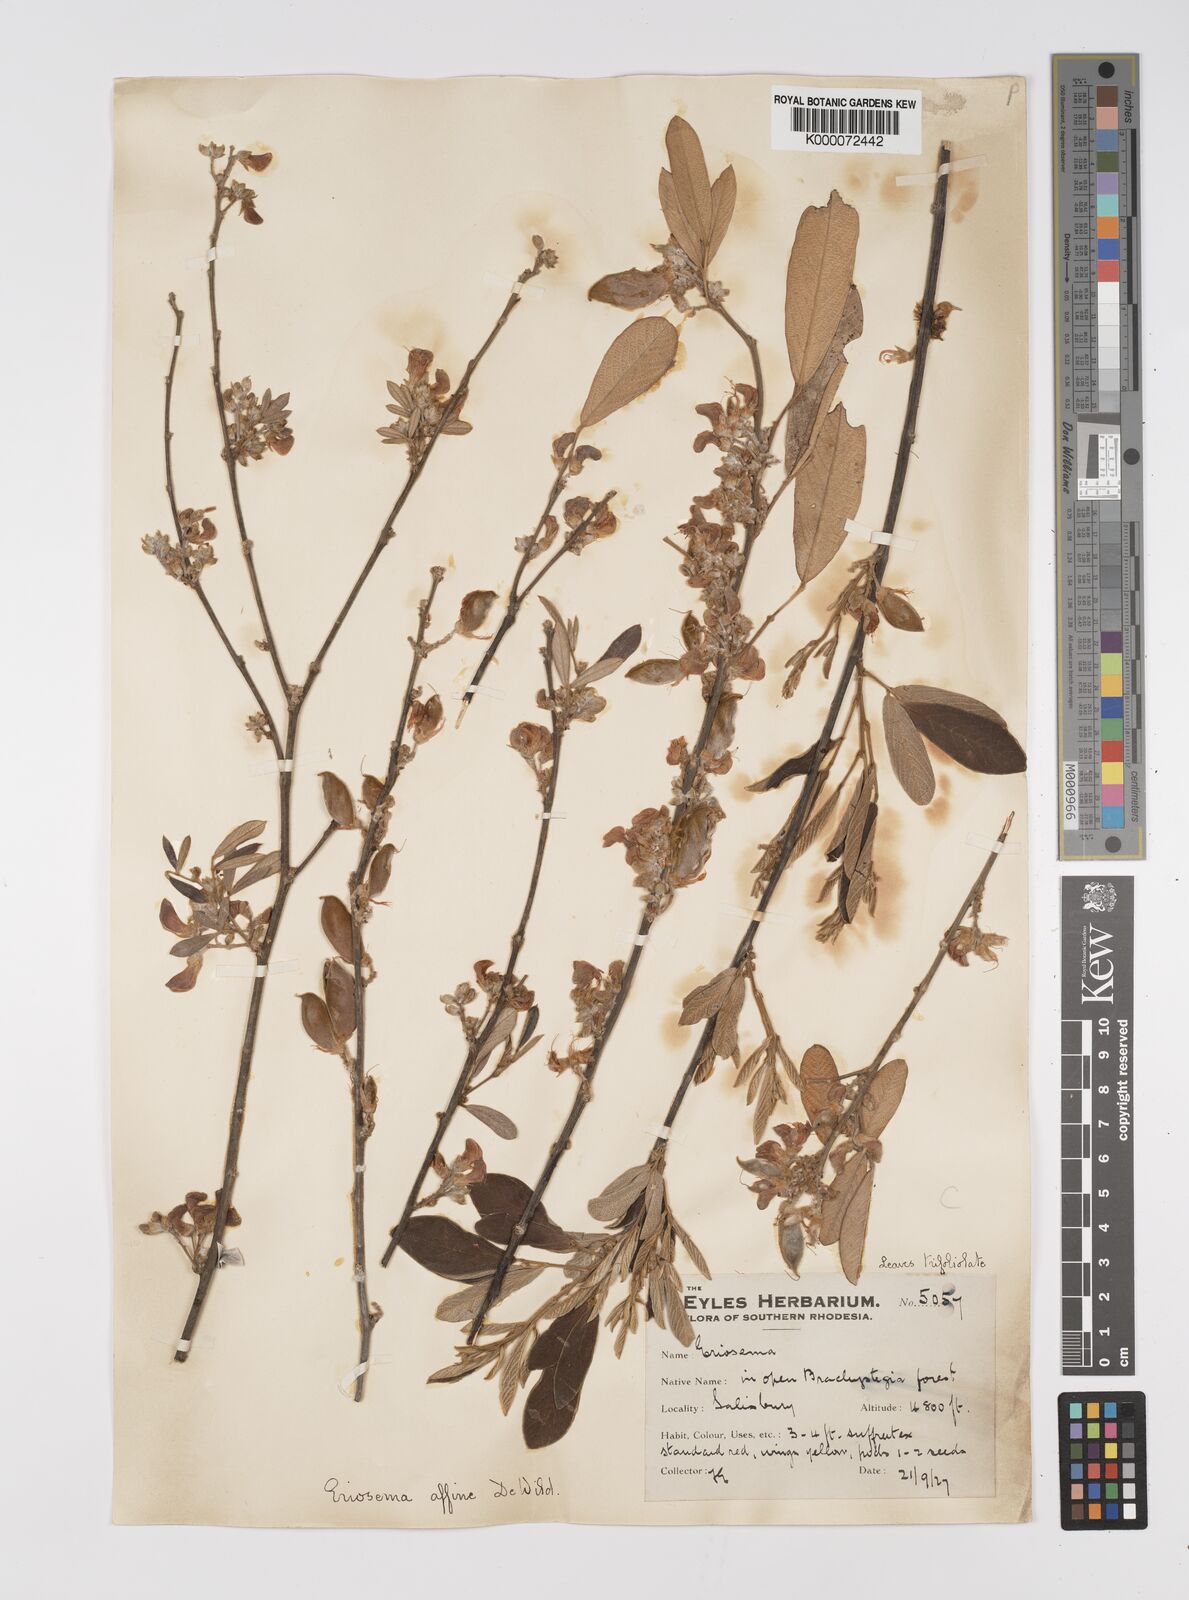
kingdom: Plantae
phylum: Tracheophyta
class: Magnoliopsida
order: Fabales
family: Fabaceae
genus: Eriosema
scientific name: Eriosema affine
